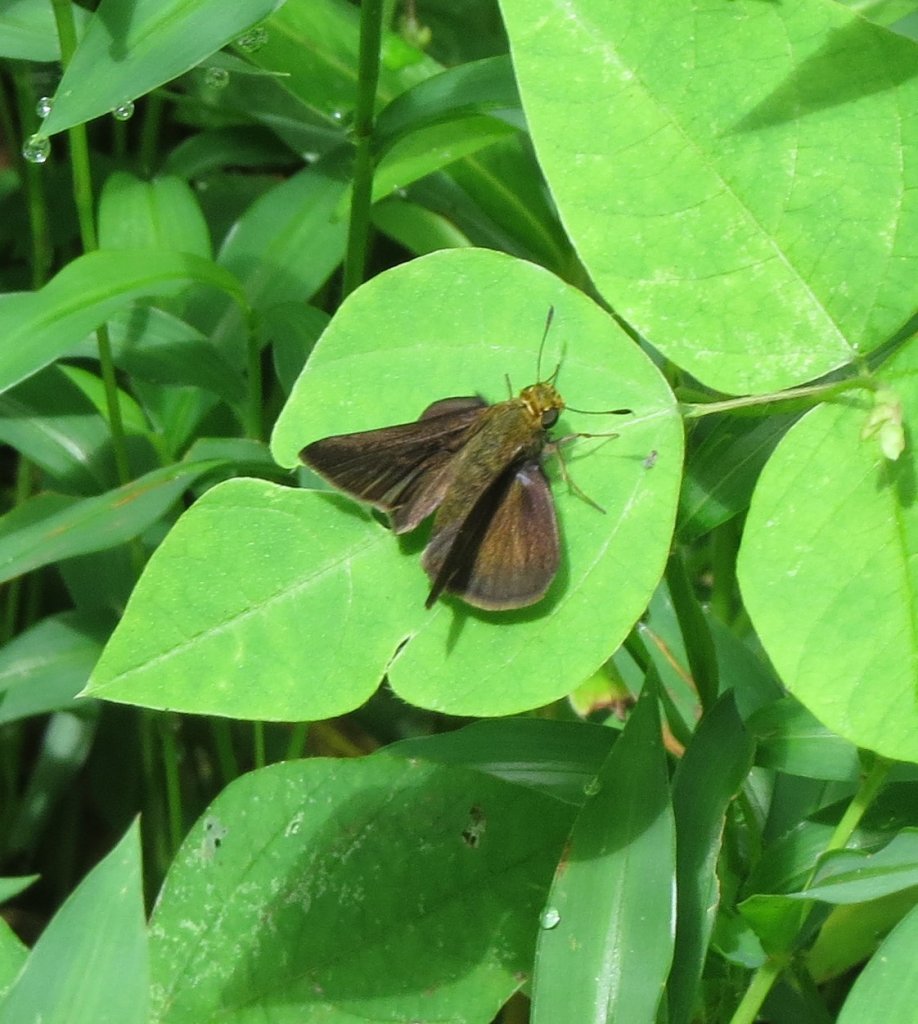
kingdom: Animalia
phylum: Arthropoda
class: Insecta
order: Lepidoptera
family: Hesperiidae
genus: Euphyes
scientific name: Euphyes vestris
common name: Dun Skipper
